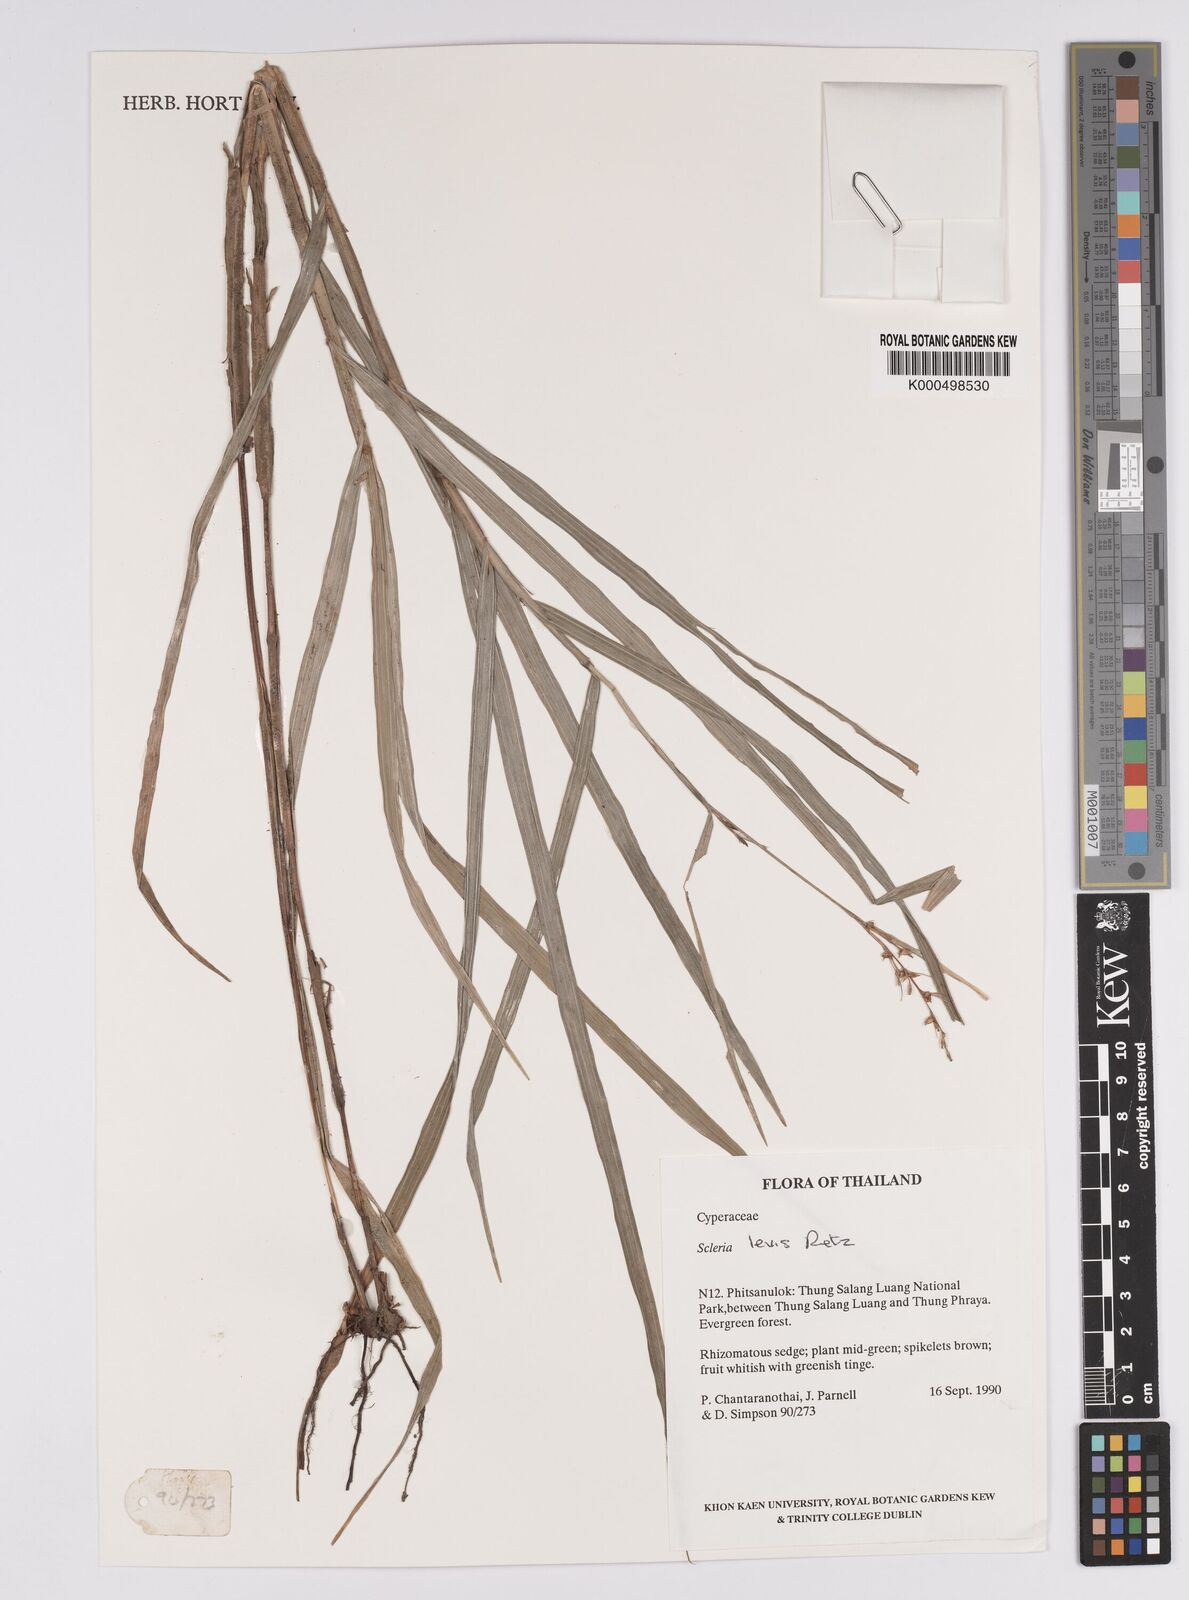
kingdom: Plantae
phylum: Tracheophyta
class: Liliopsida
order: Poales
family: Cyperaceae
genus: Scleria
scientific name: Scleria levis
